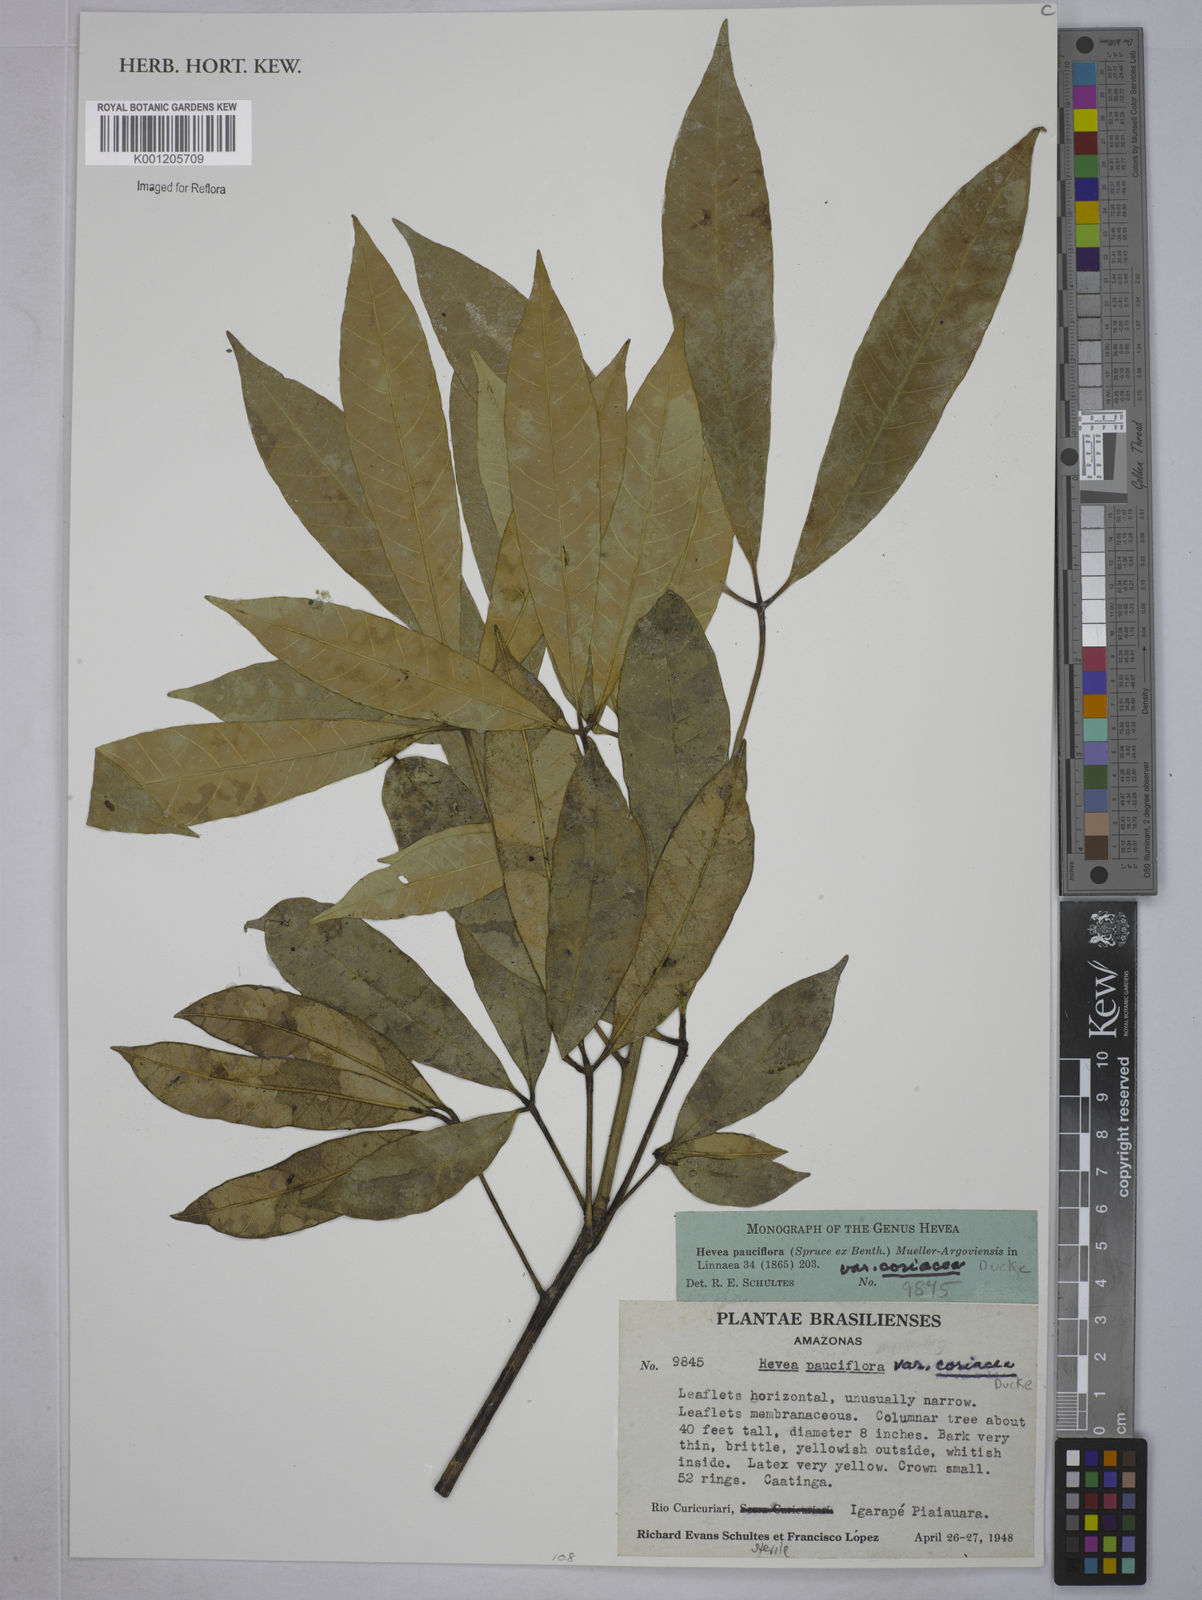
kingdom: Plantae
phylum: Tracheophyta
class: Magnoliopsida
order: Malpighiales
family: Euphorbiaceae
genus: Hevea
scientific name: Hevea pauciflora
